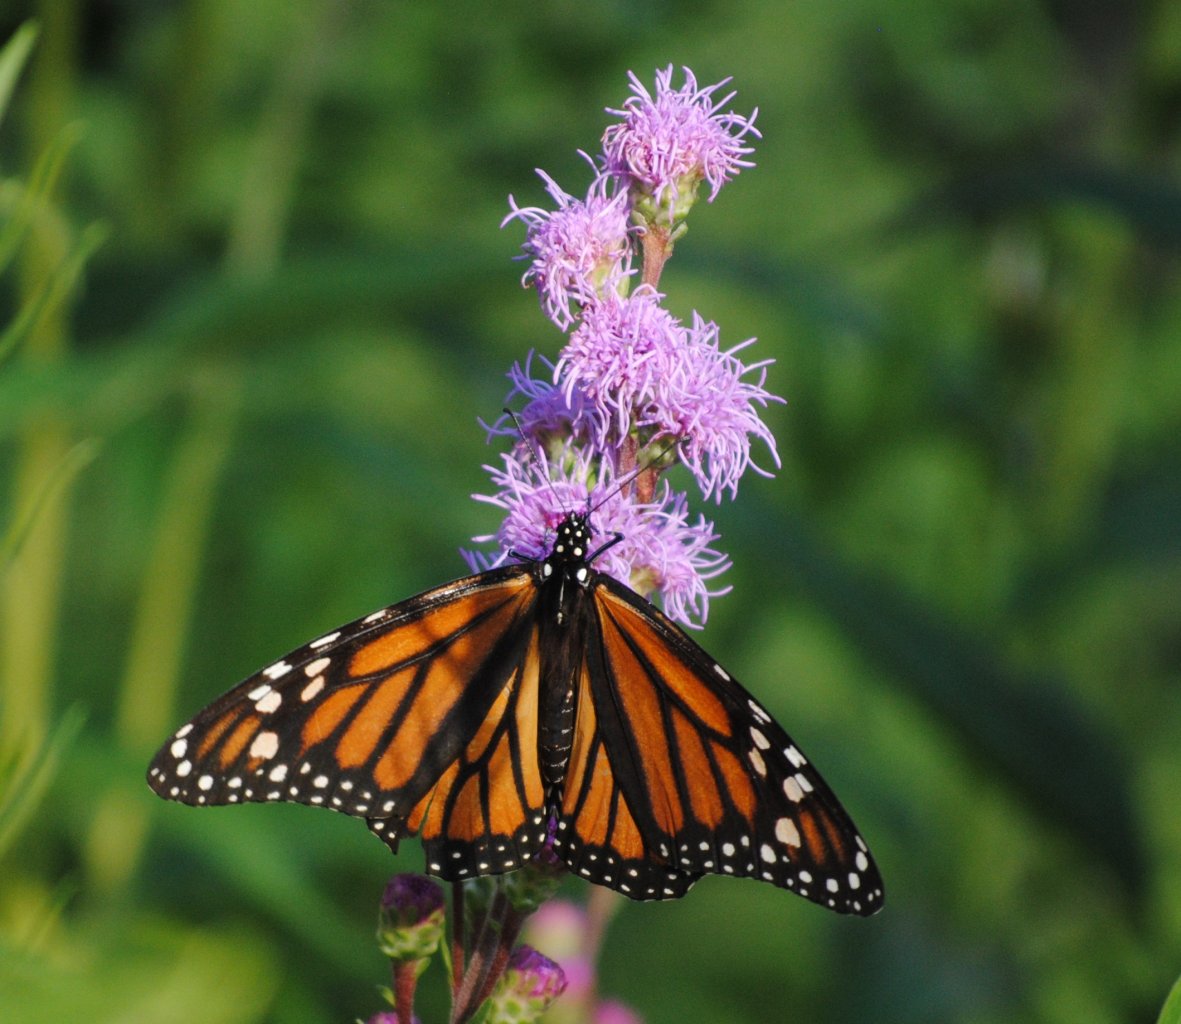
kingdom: Animalia
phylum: Arthropoda
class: Insecta
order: Lepidoptera
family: Nymphalidae
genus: Danaus
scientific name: Danaus plexippus
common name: Monarch
